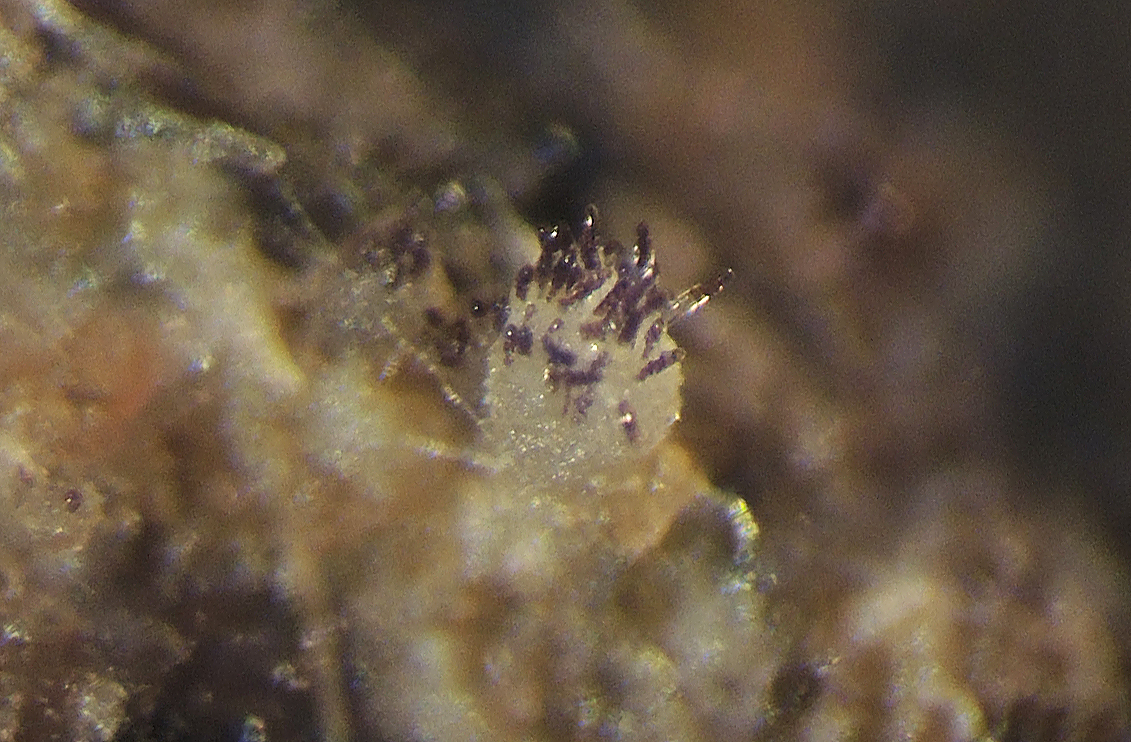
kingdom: Fungi
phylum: Ascomycota
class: Pezizomycetes
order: Pezizales
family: Ascobolaceae
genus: Ascobolus
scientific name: Ascobolus brantophilus
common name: gåselort-prikbæger
